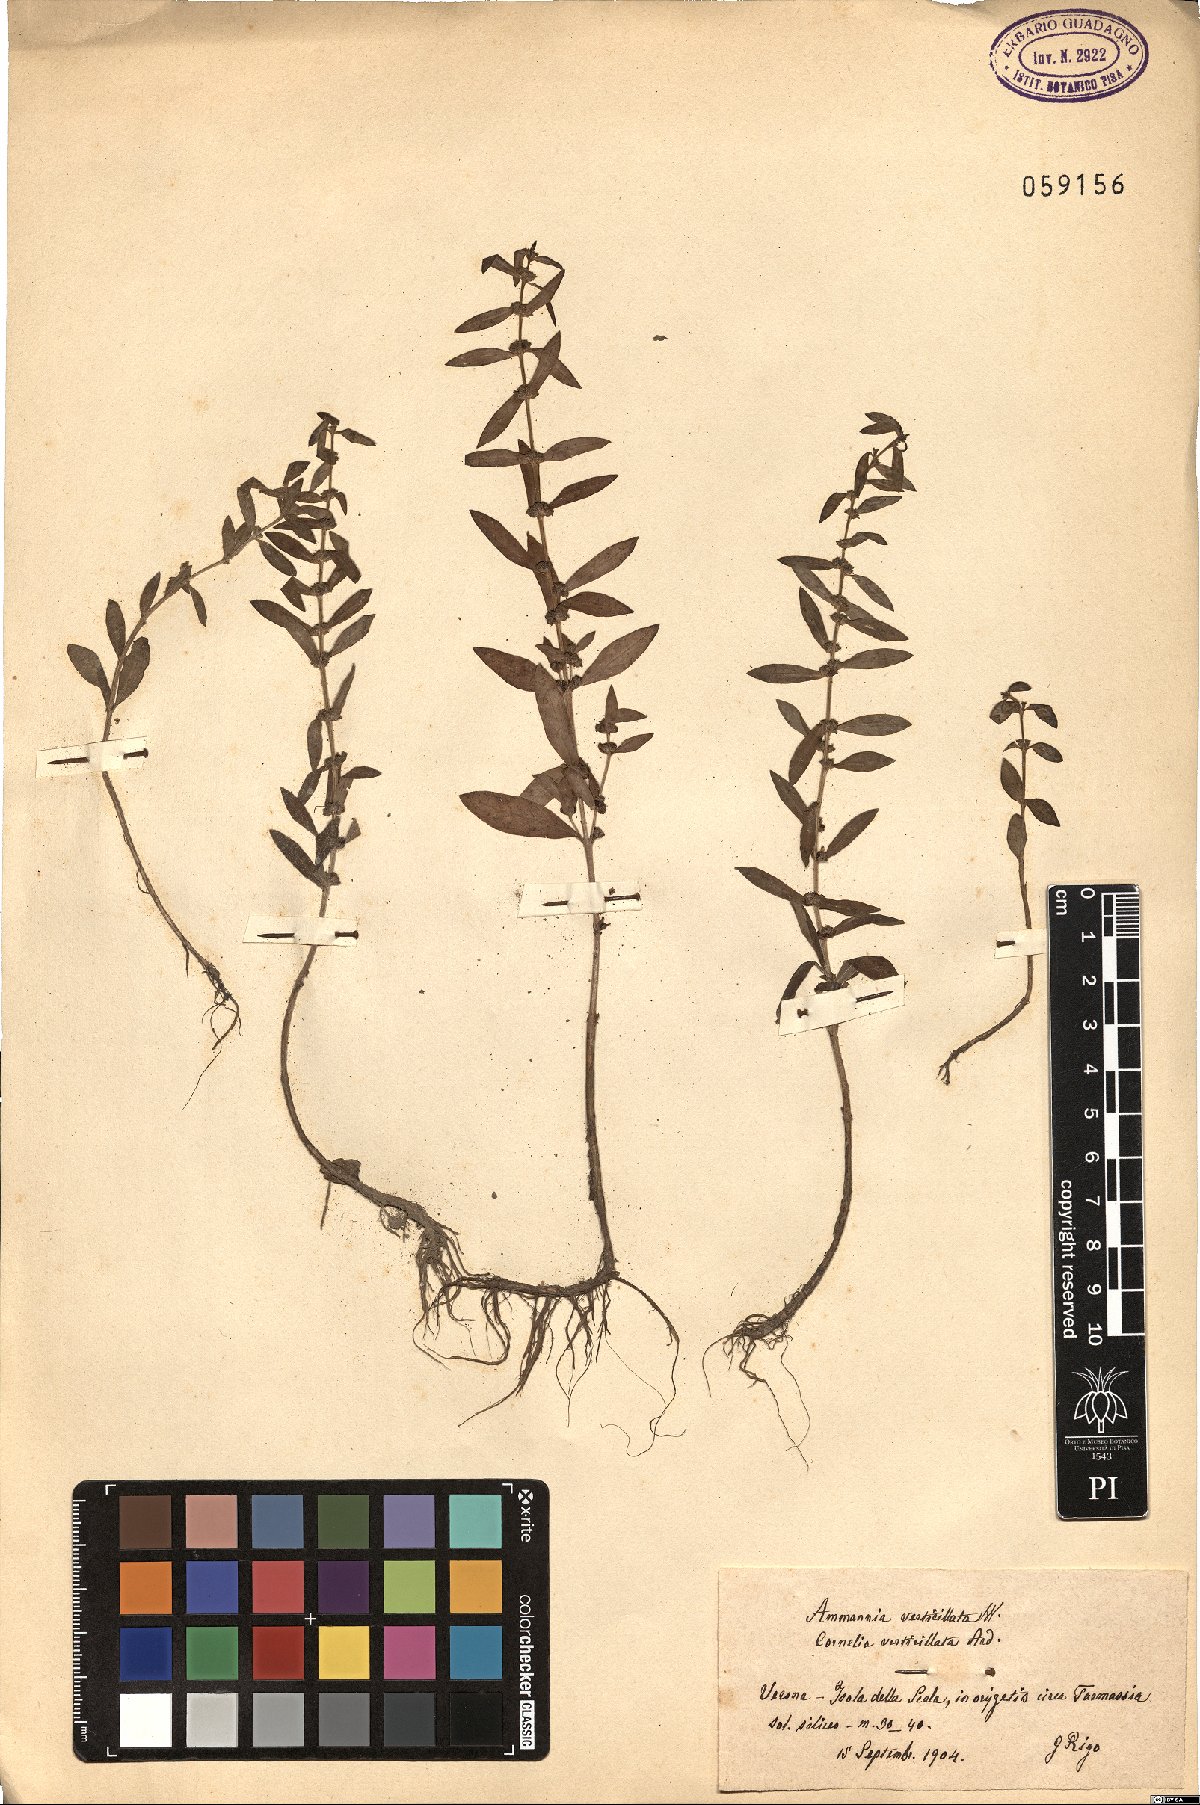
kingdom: Plantae
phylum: Tracheophyta
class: Magnoliopsida
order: Myrtales
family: Lythraceae
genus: Ammannia
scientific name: Ammannia baccifera
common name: Blistering ammania
